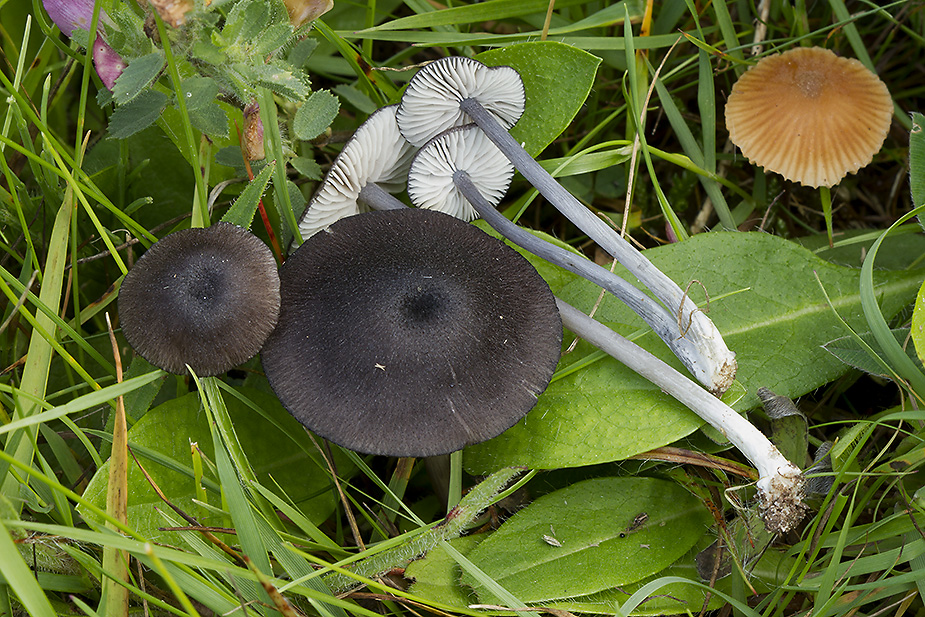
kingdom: Fungi
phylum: Basidiomycota
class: Agaricomycetes
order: Agaricales
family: Entolomataceae
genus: Entoloma
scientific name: Entoloma porphyrogriseum
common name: porfyrgrå rødblad
